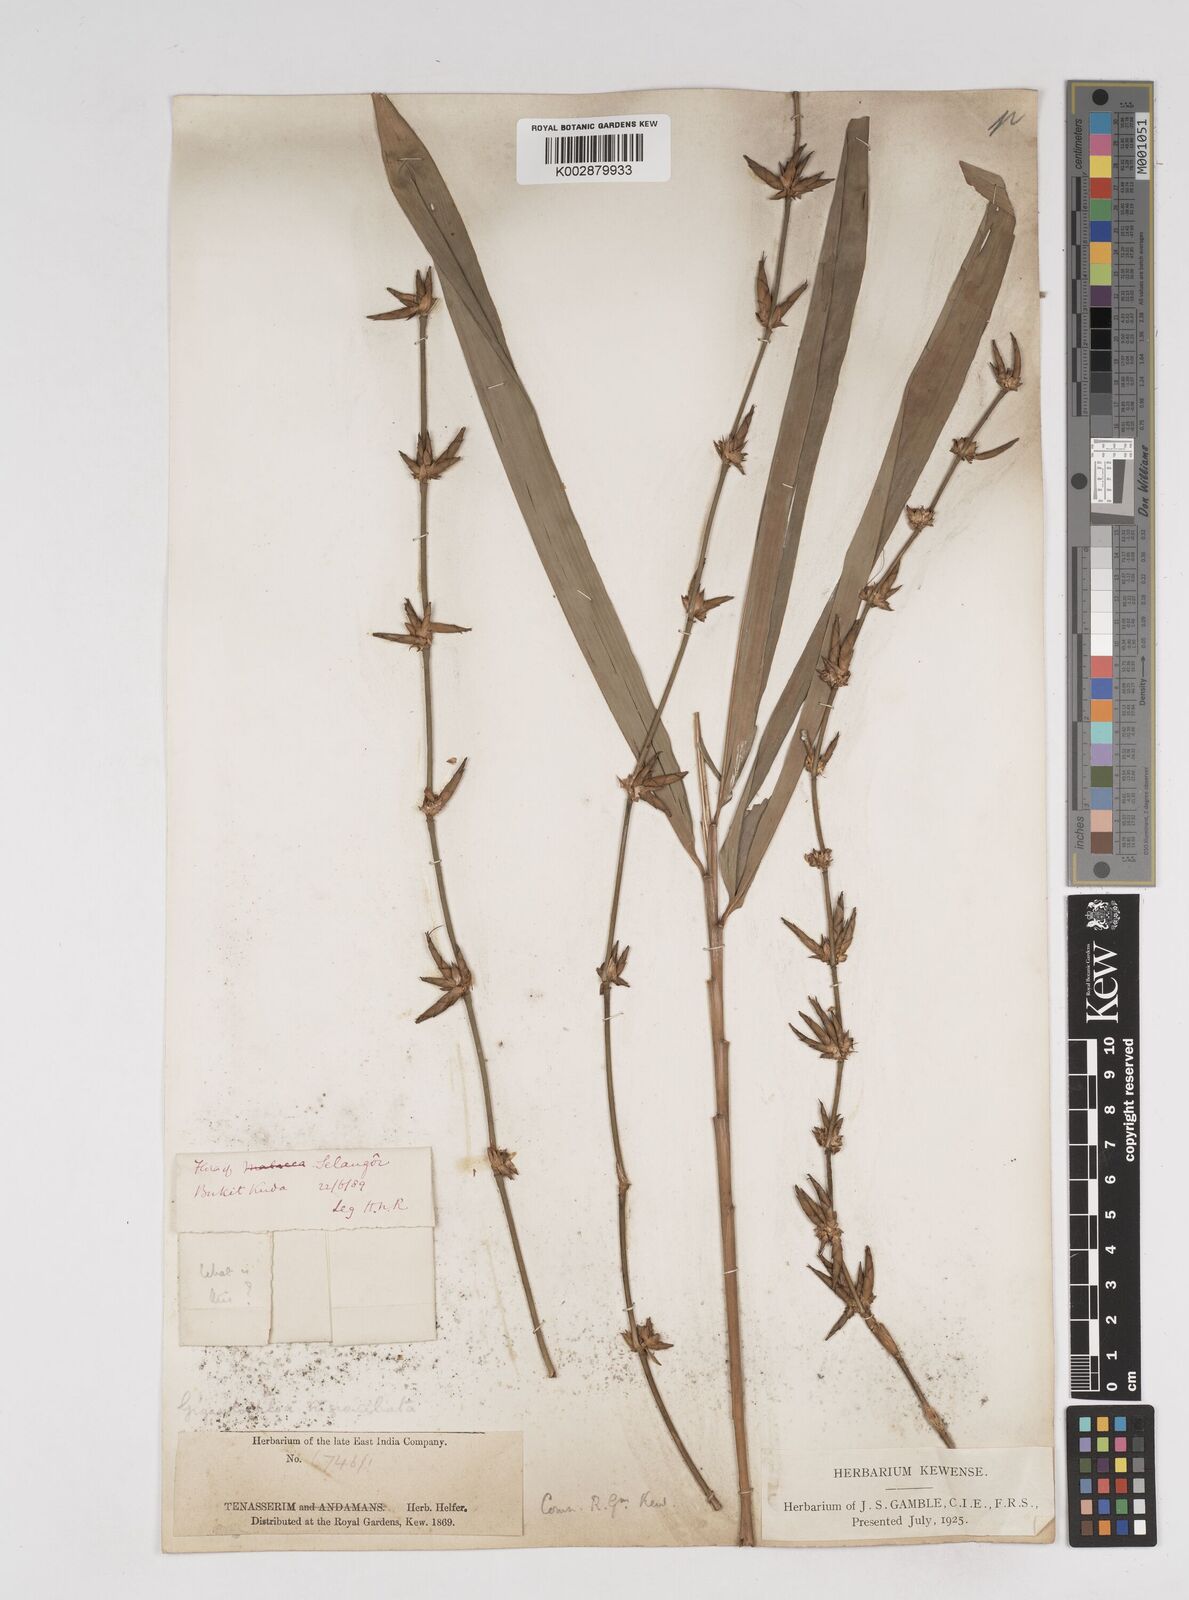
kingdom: Plantae
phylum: Tracheophyta
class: Liliopsida
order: Poales
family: Poaceae
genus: Gigantochloa
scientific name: Gigantochloa nigrociliata
